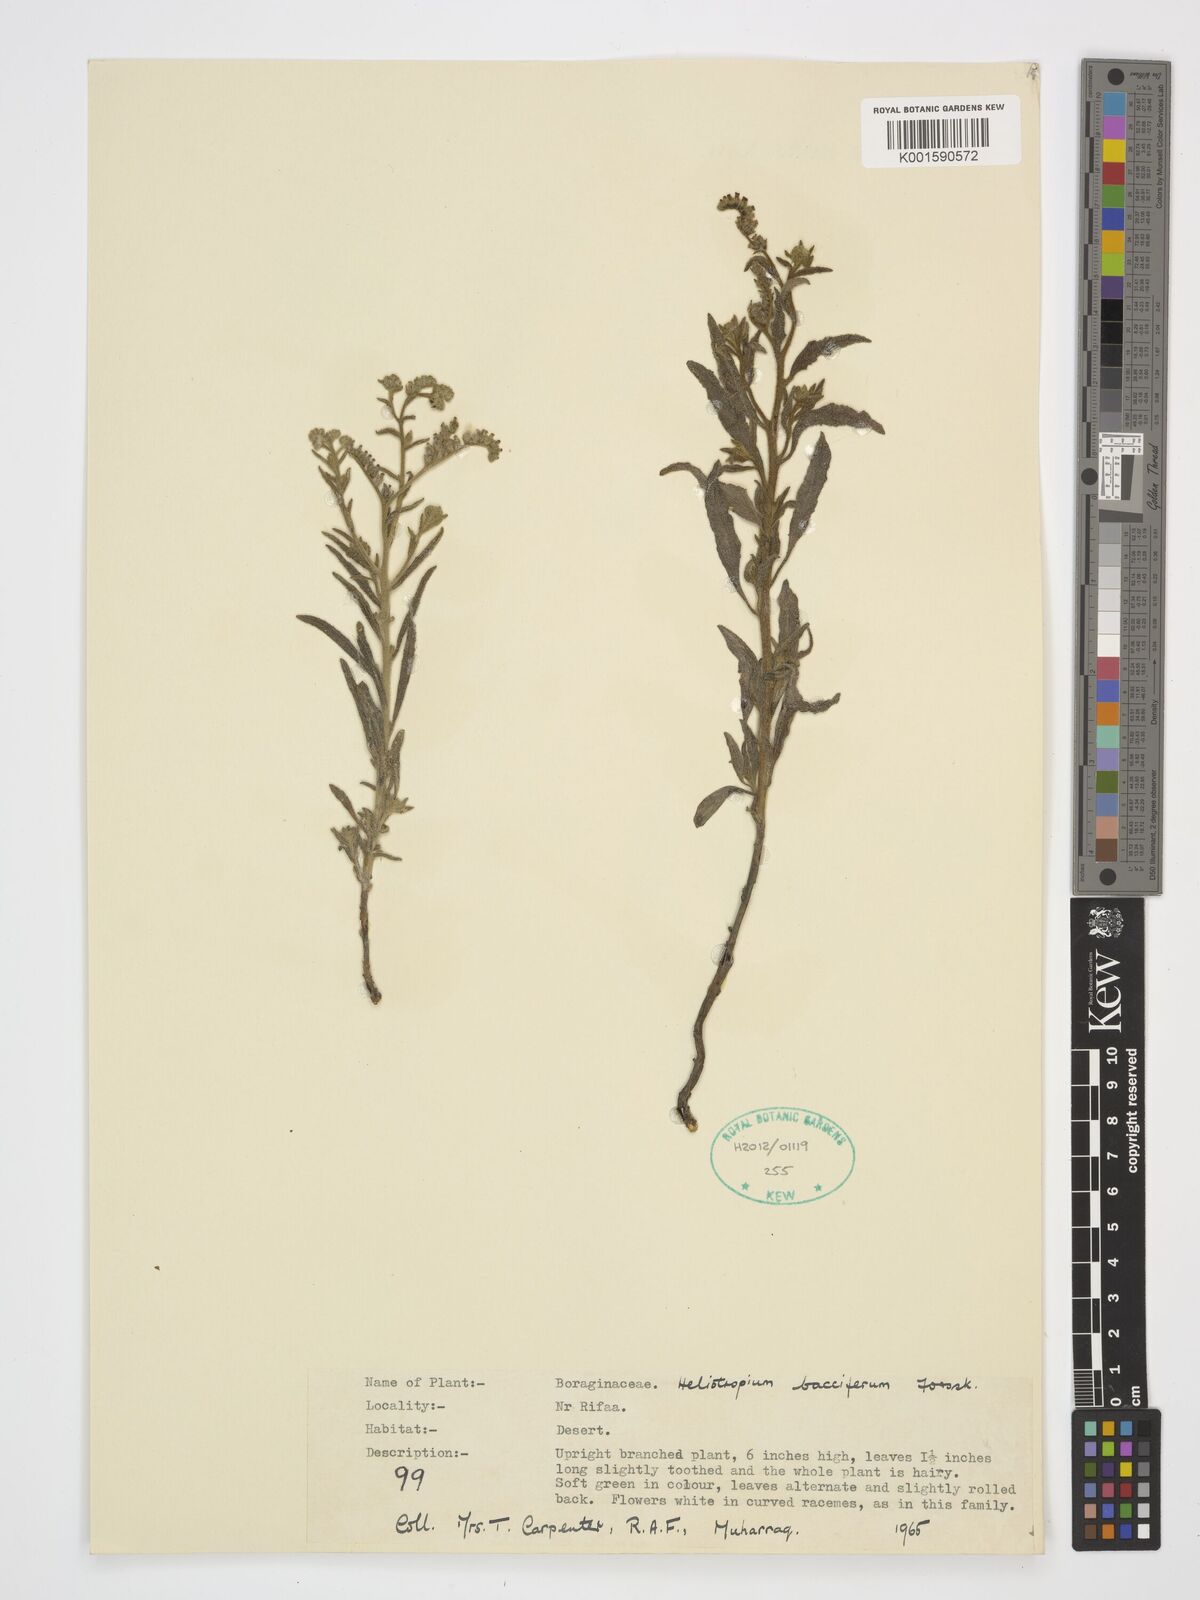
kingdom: Plantae
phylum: Tracheophyta
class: Magnoliopsida
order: Boraginales
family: Heliotropiaceae
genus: Heliotropium
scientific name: Heliotropium bacciferum
